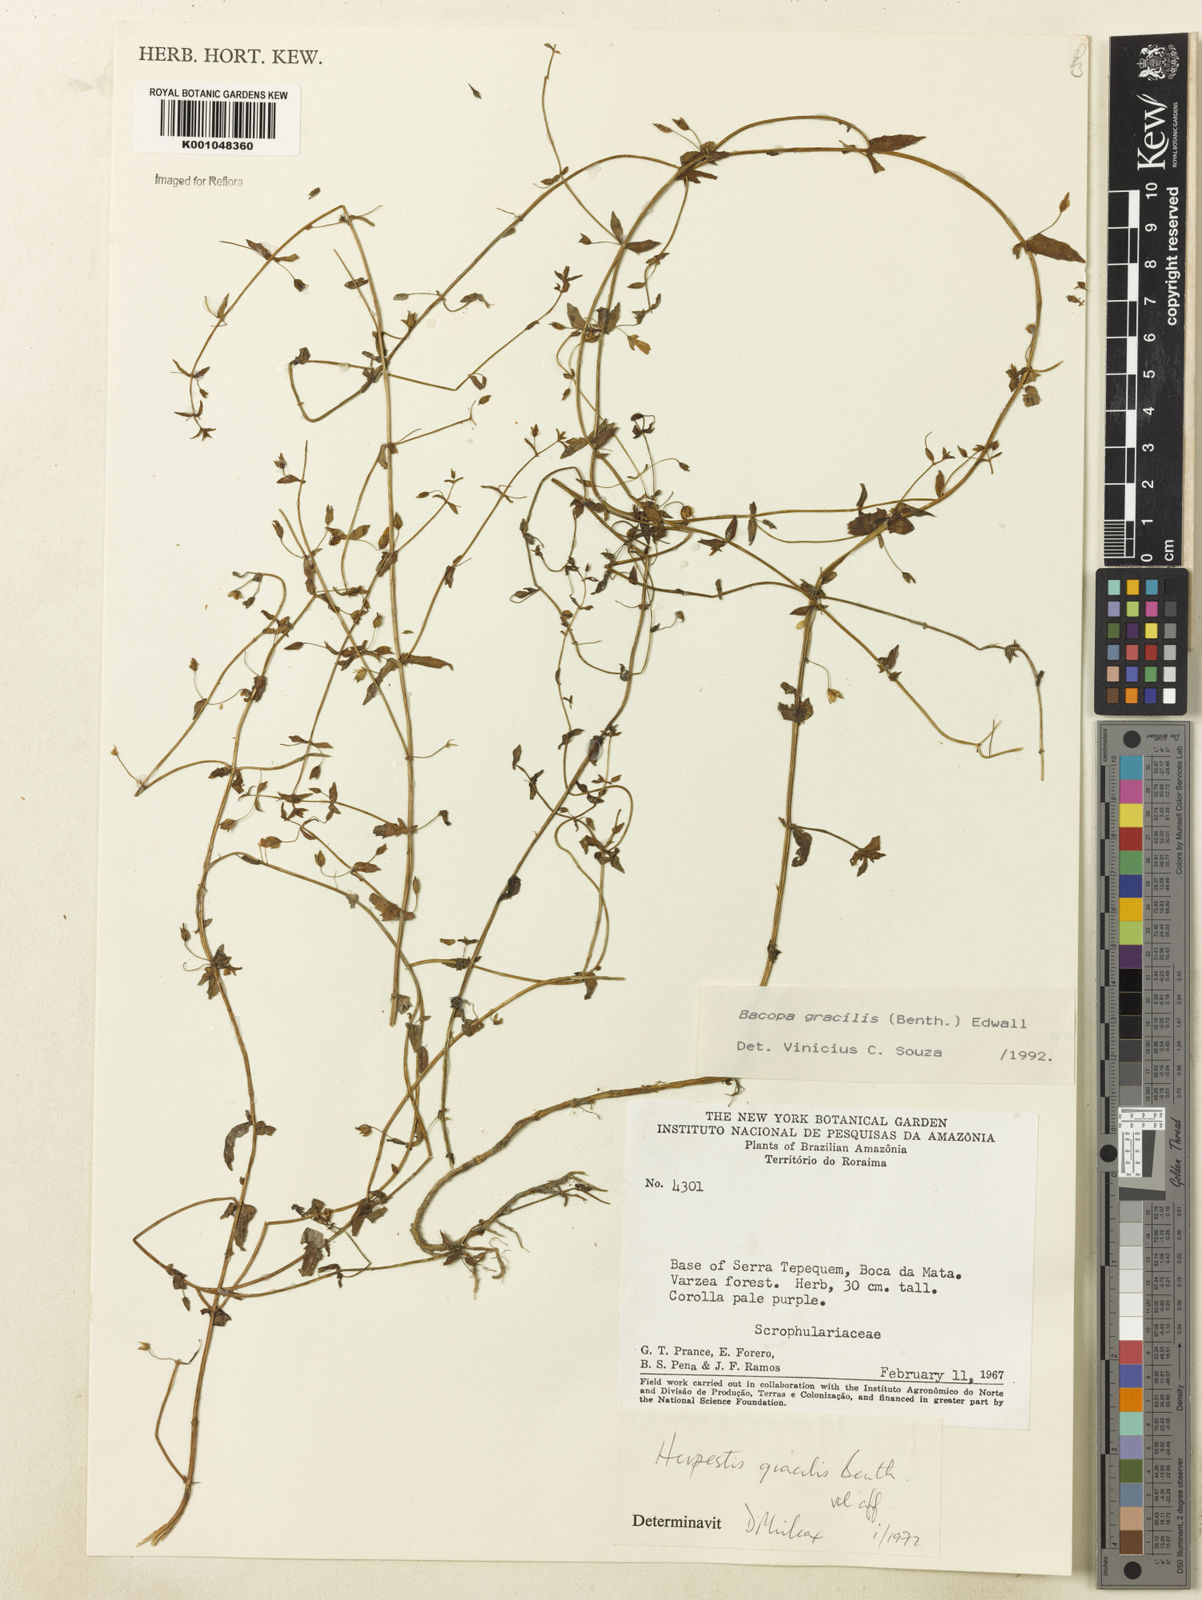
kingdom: Plantae
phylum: Tracheophyta
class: Magnoliopsida
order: Lamiales
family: Plantaginaceae
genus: Bacopa
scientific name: Bacopa gracilis
